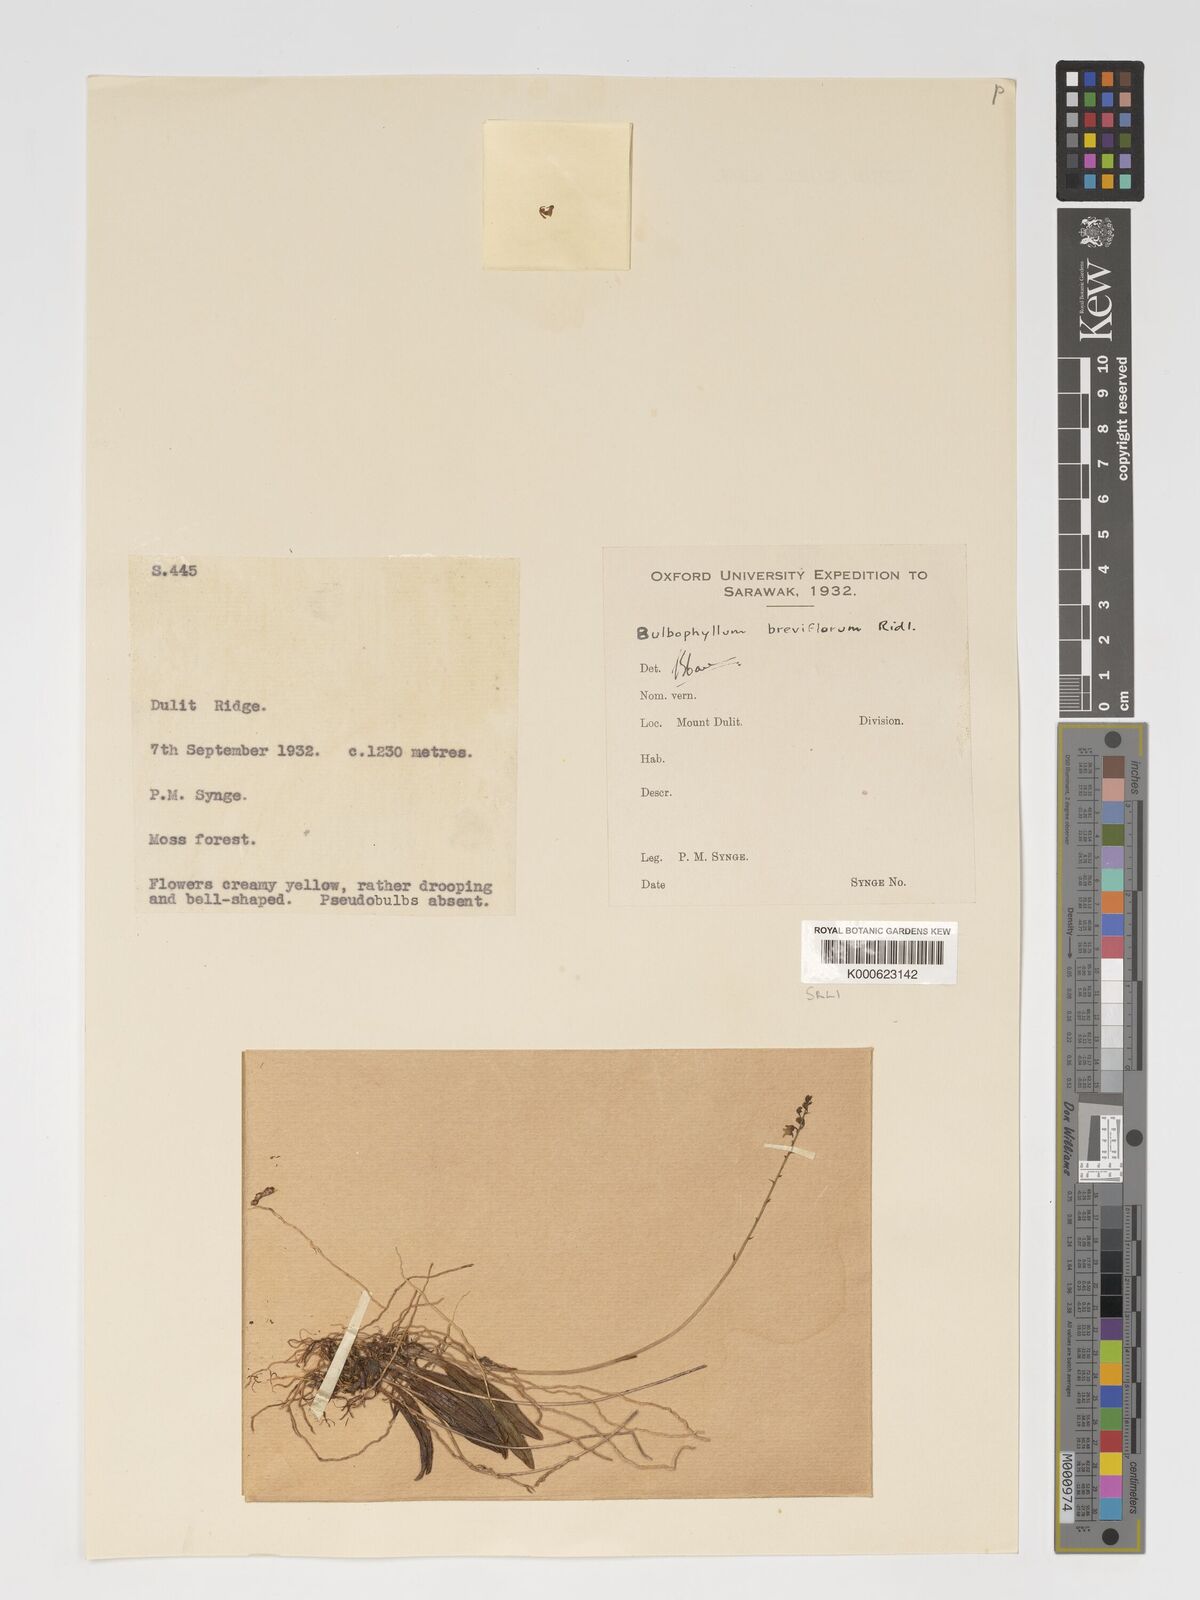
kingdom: Plantae
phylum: Tracheophyta
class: Liliopsida
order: Asparagales
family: Orchidaceae
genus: Bulbophyllum
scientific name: Bulbophyllum
